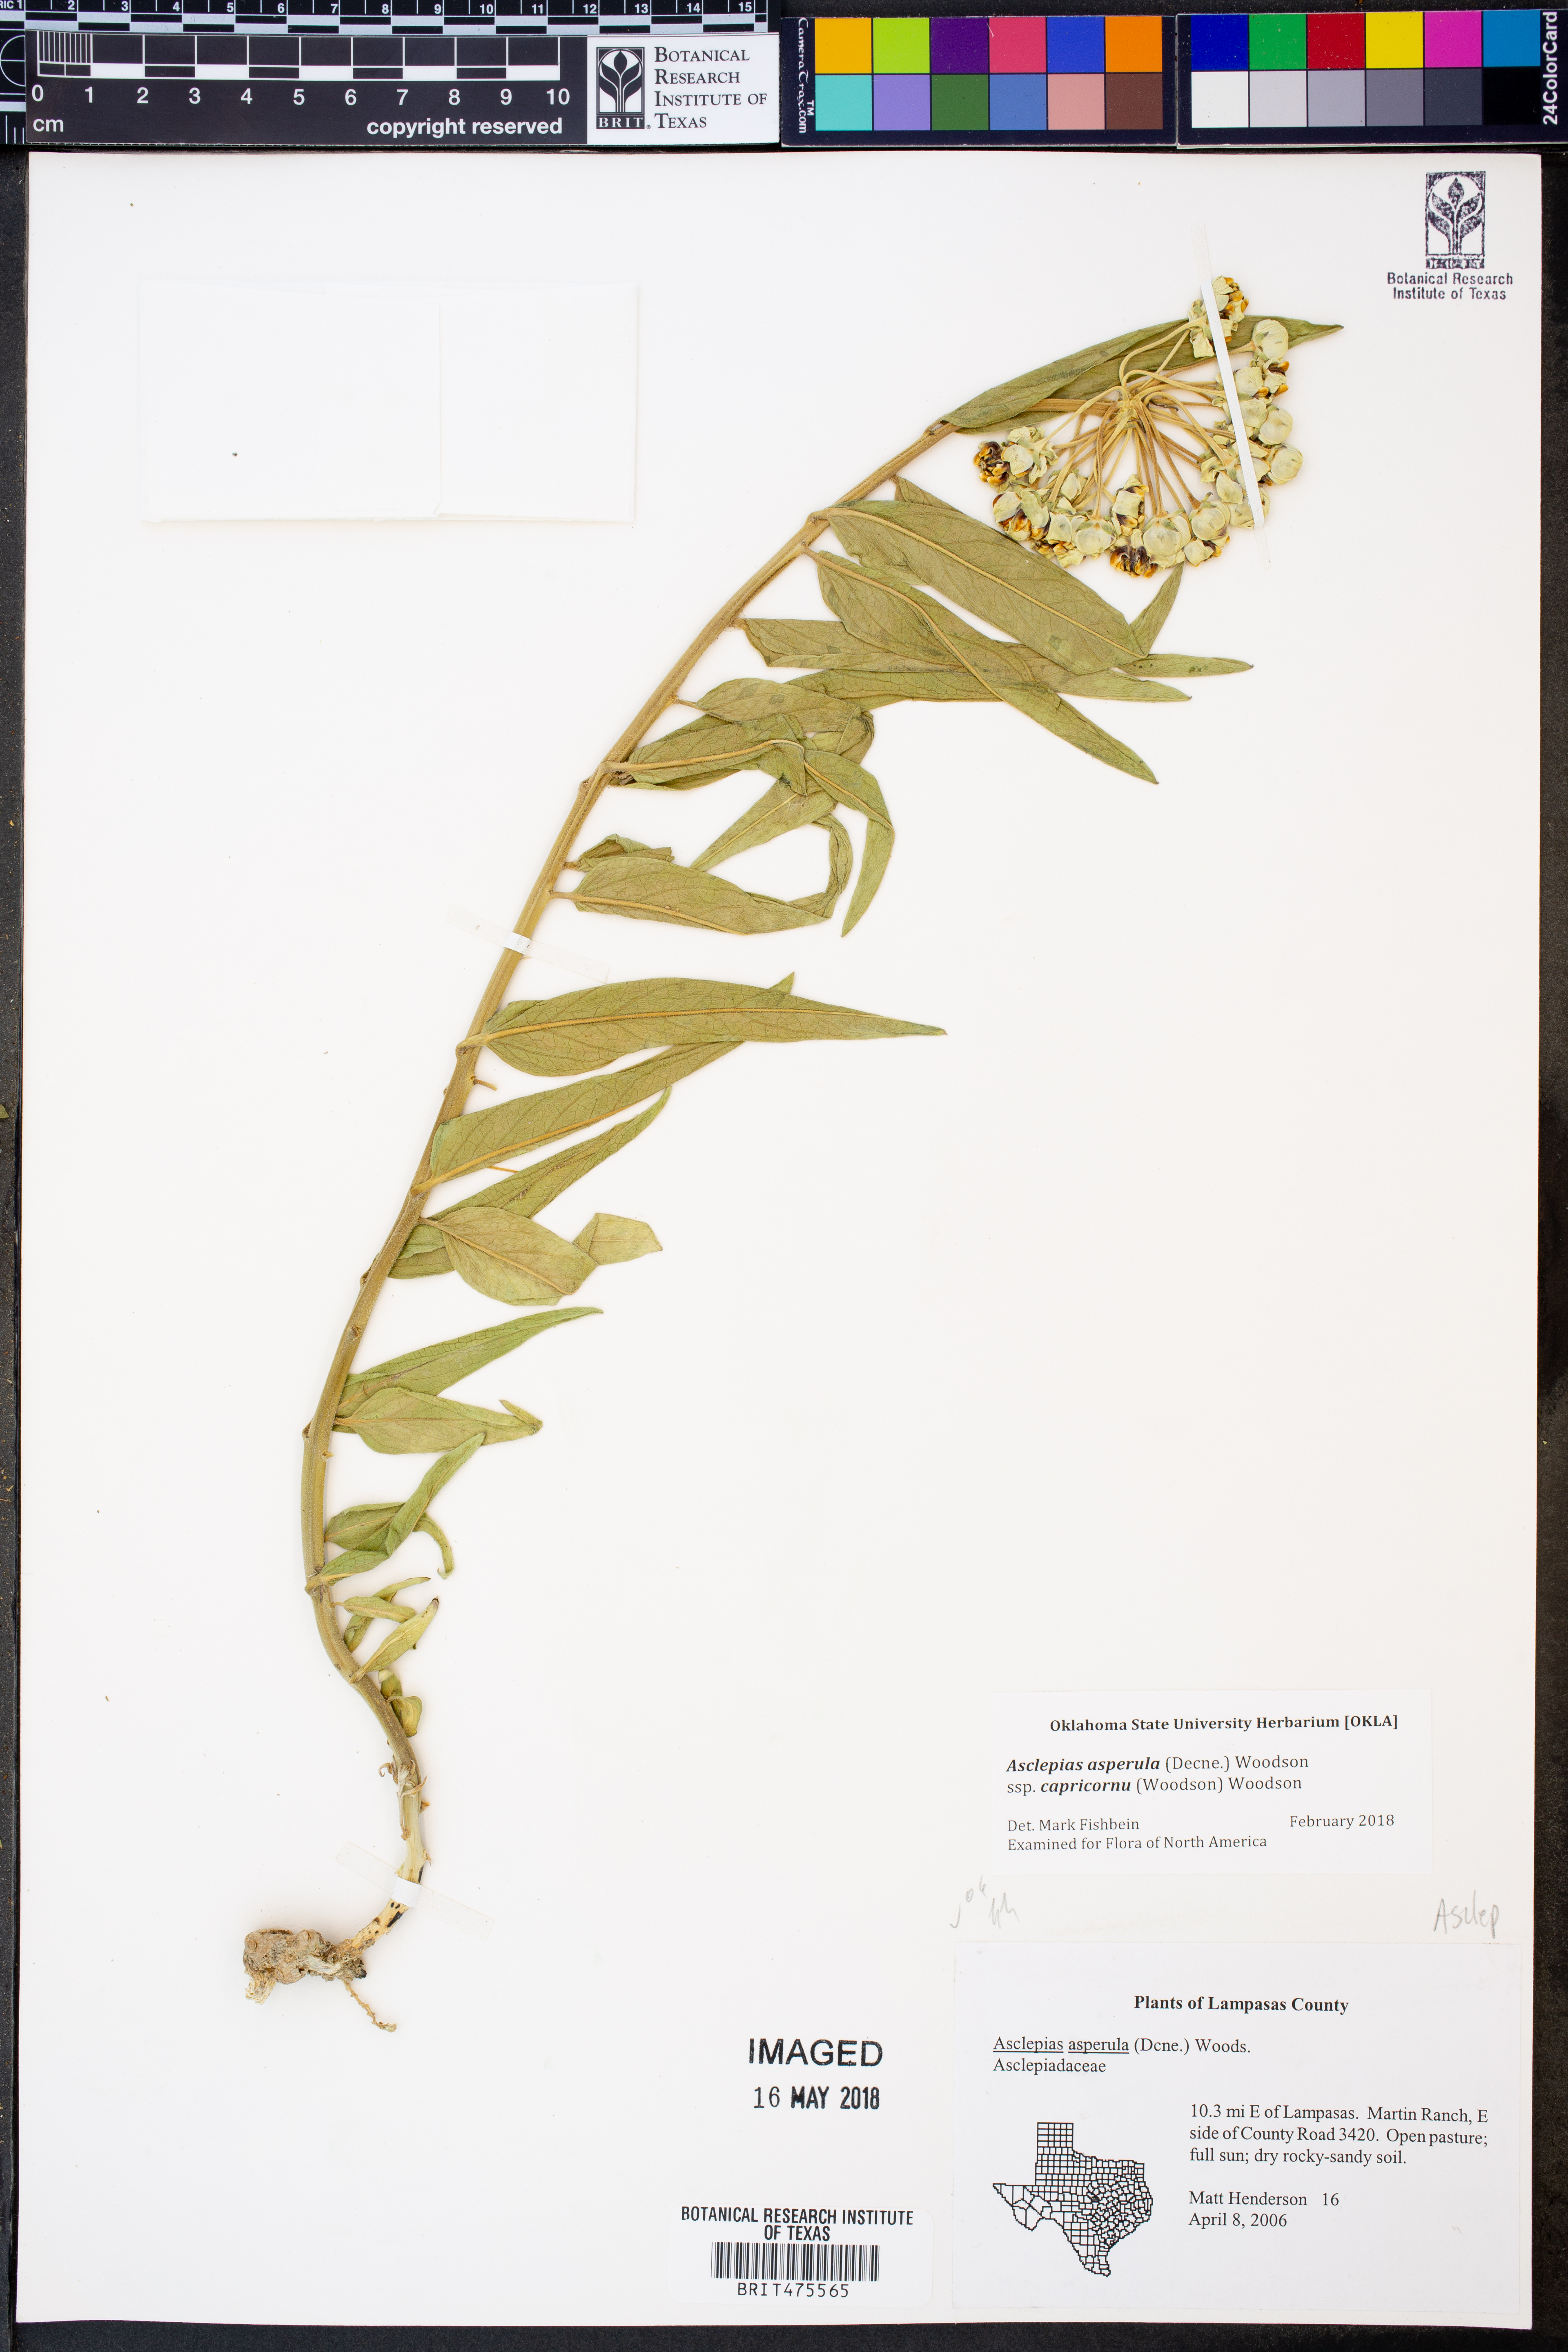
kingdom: Plantae
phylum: Tracheophyta
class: Magnoliopsida
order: Gentianales
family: Apocynaceae
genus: Asclepias
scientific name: Asclepias asperula
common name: Antelope horns
